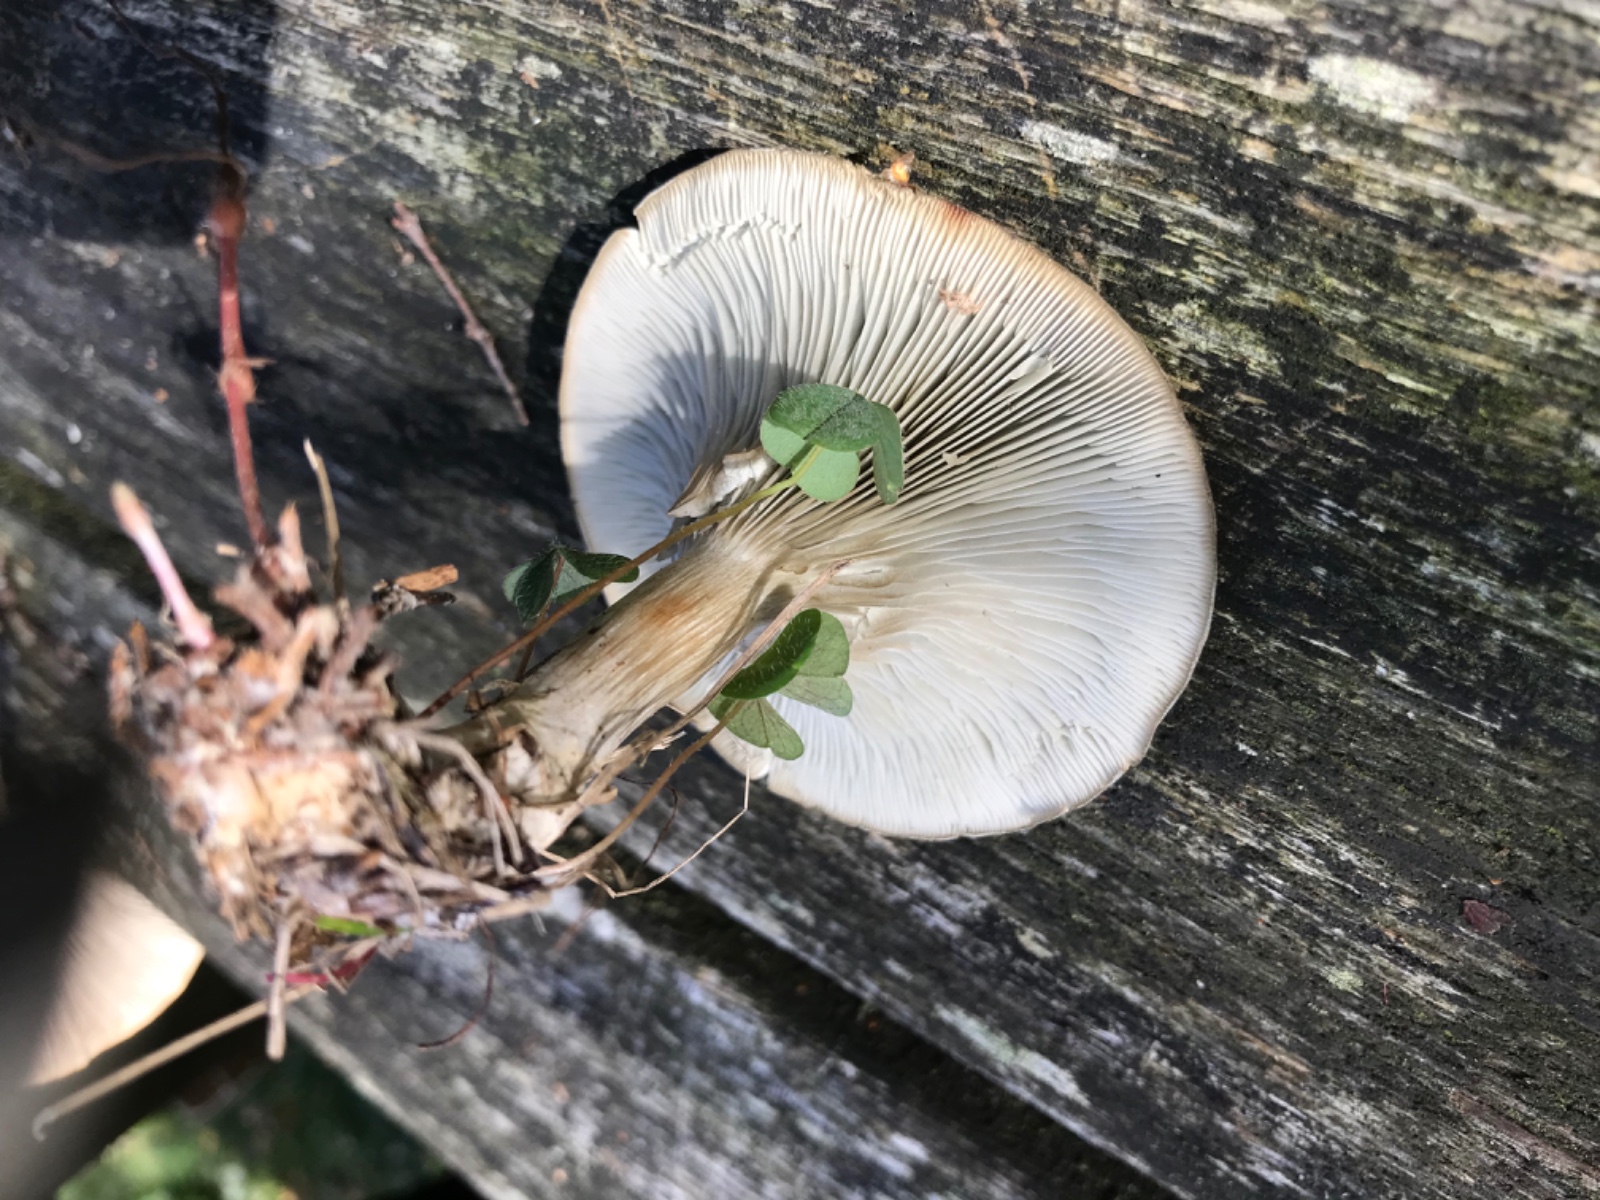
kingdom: Fungi
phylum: Basidiomycota
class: Agaricomycetes
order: Agaricales
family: Tricholomataceae
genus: Clitocybe
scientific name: Clitocybe odora
